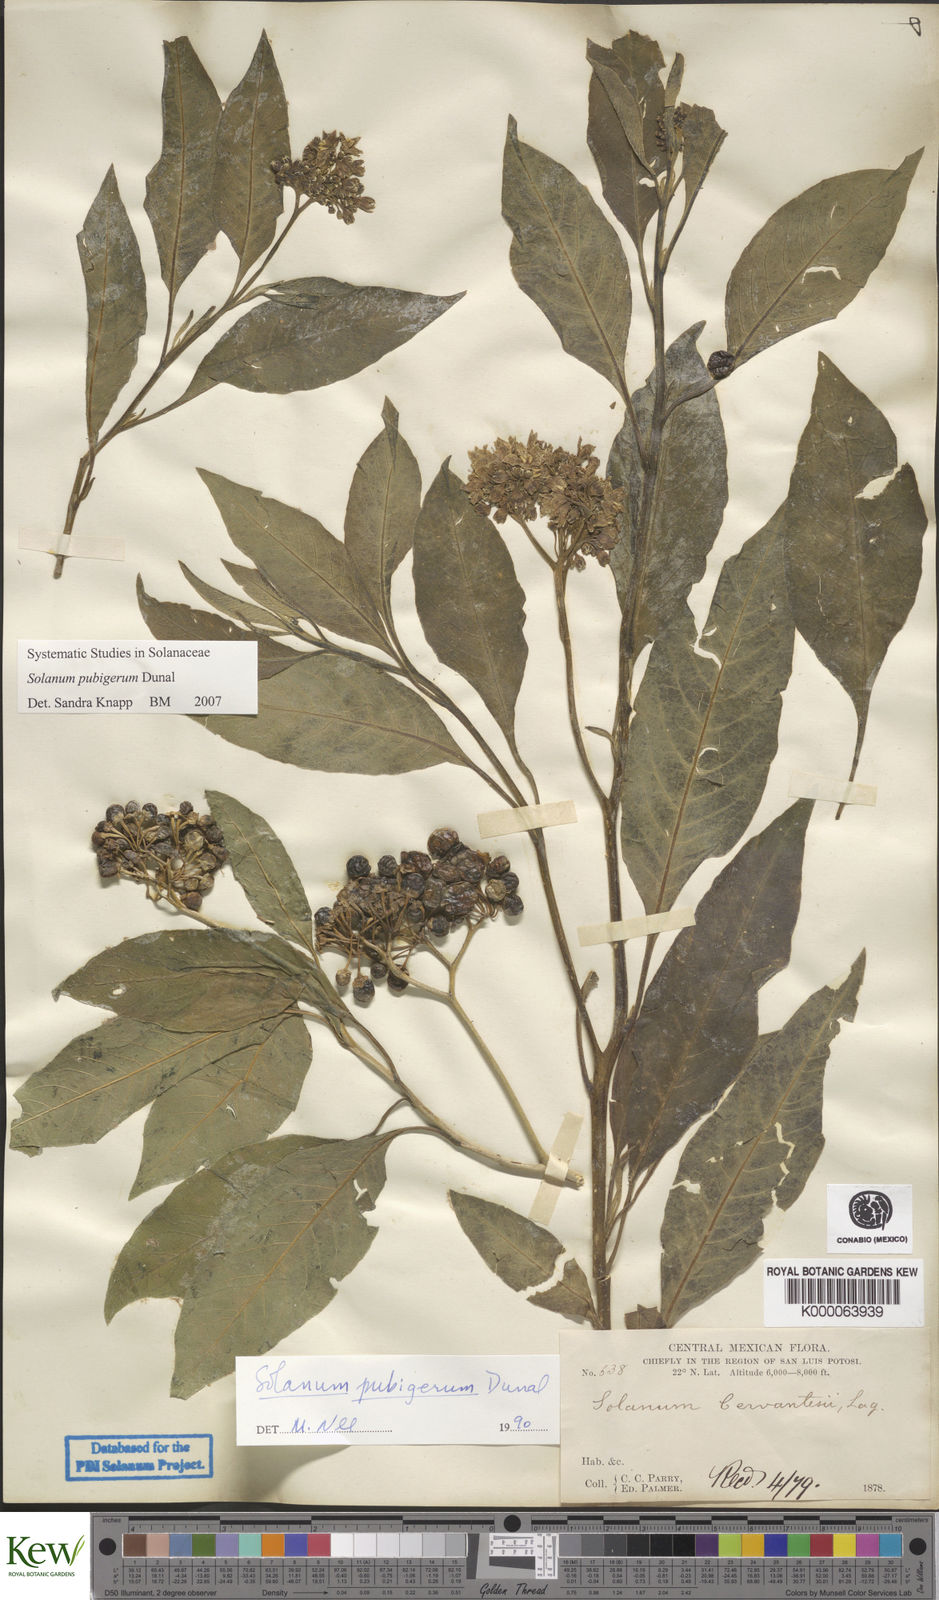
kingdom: Plantae
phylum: Tracheophyta
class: Magnoliopsida
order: Solanales
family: Solanaceae
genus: Solanum
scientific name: Solanum pubigerum
